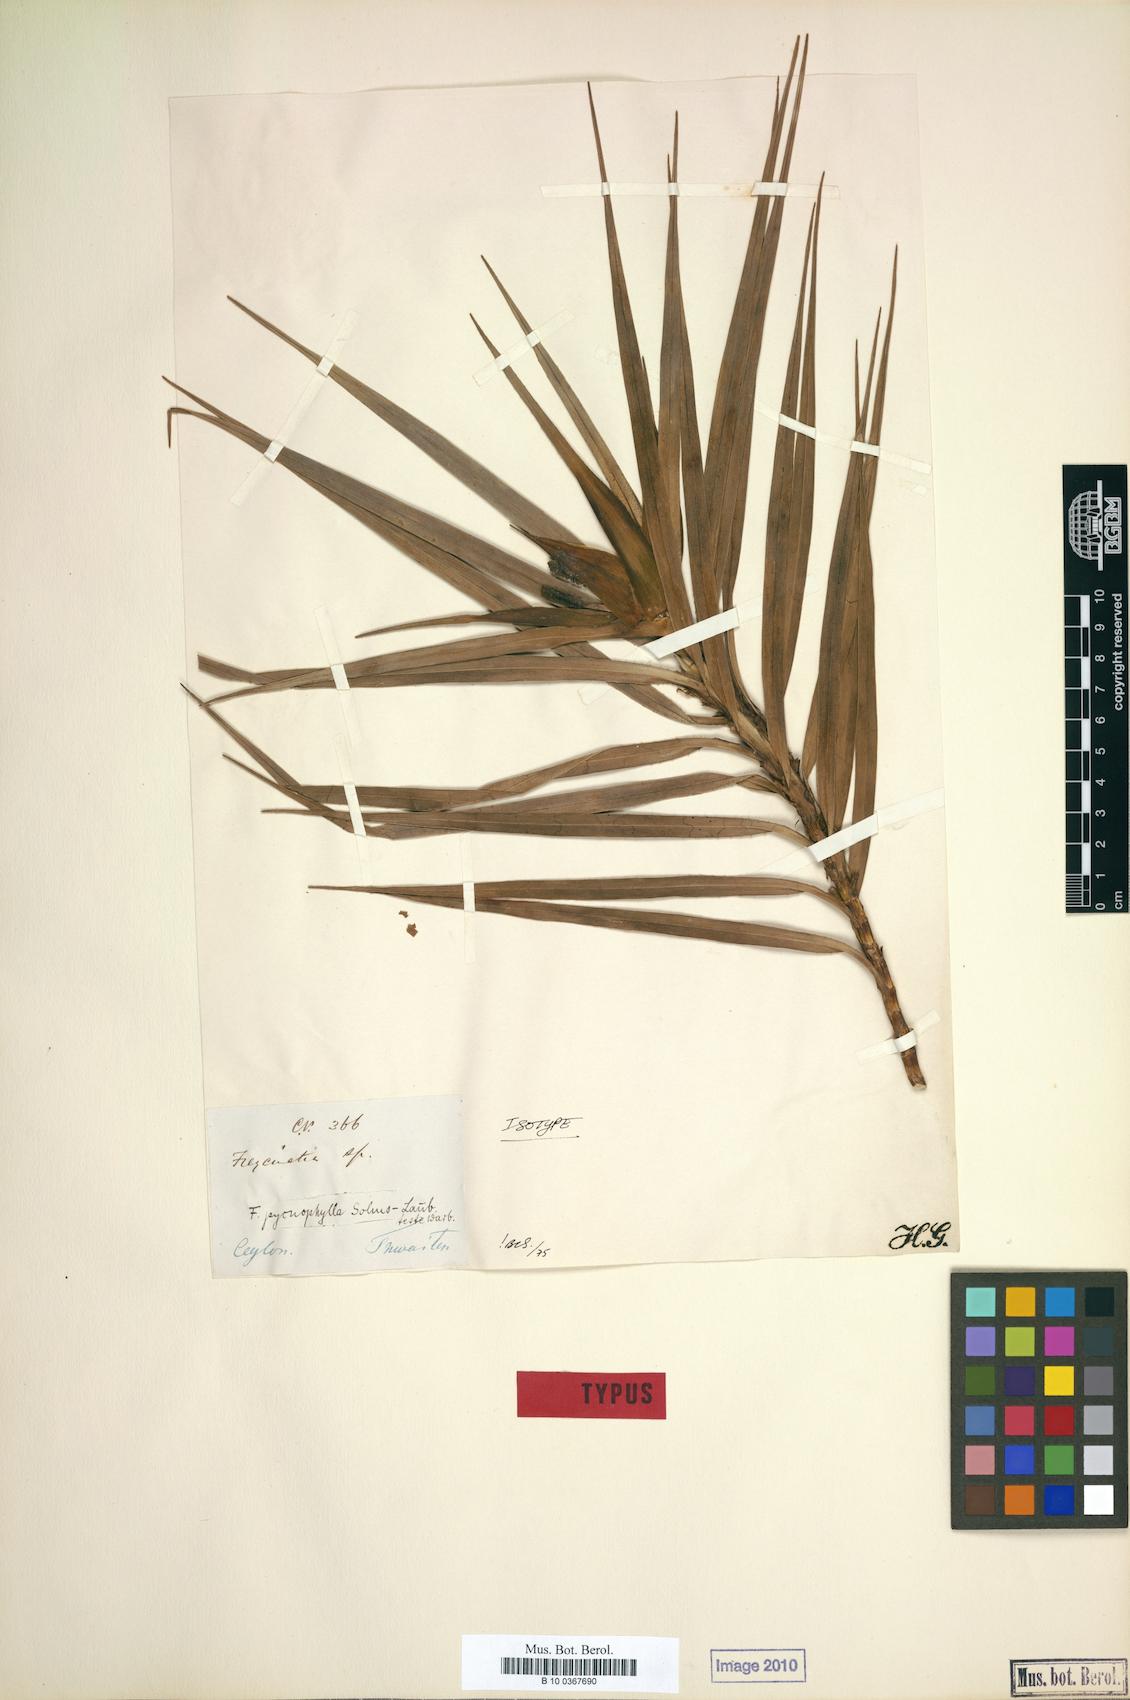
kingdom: Plantae
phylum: Tracheophyta
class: Liliopsida
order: Pandanales
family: Pandanaceae
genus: Freycinetia
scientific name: Freycinetia pycnophylla
